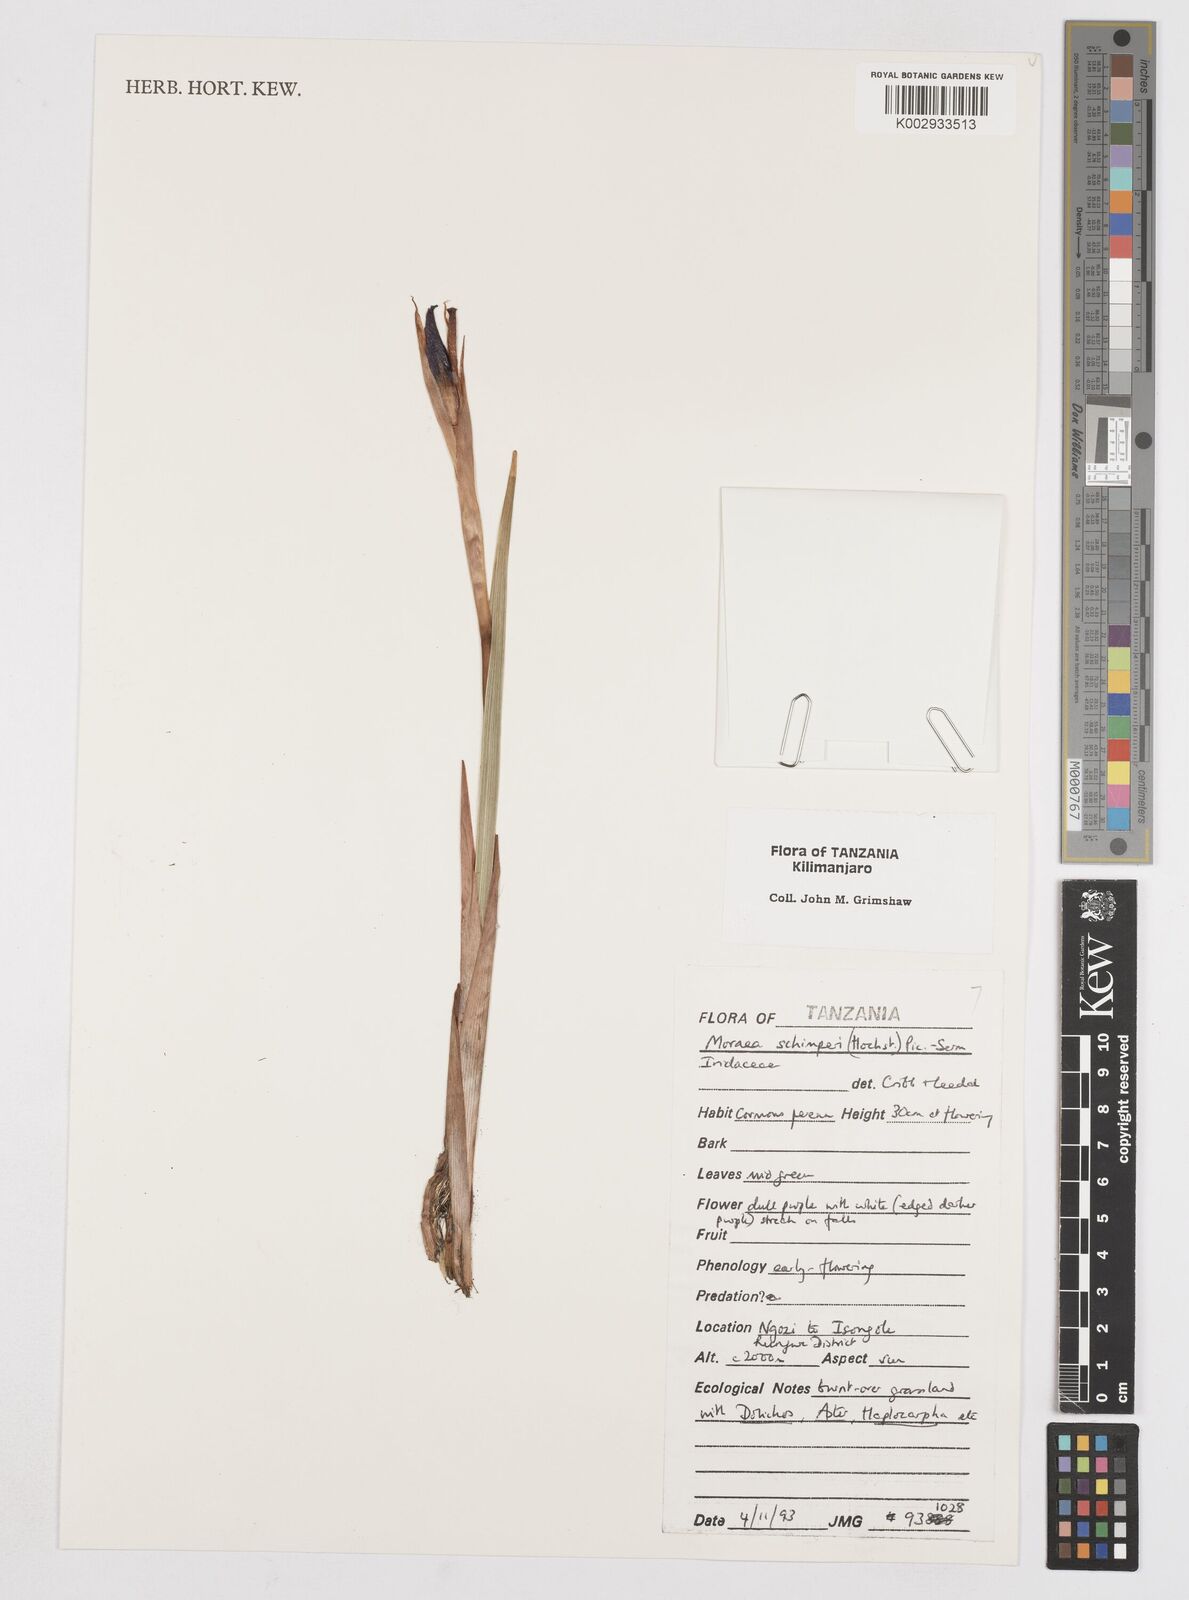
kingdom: Plantae
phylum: Tracheophyta
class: Liliopsida
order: Asparagales
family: Iridaceae
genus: Moraea
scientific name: Moraea schimperi
